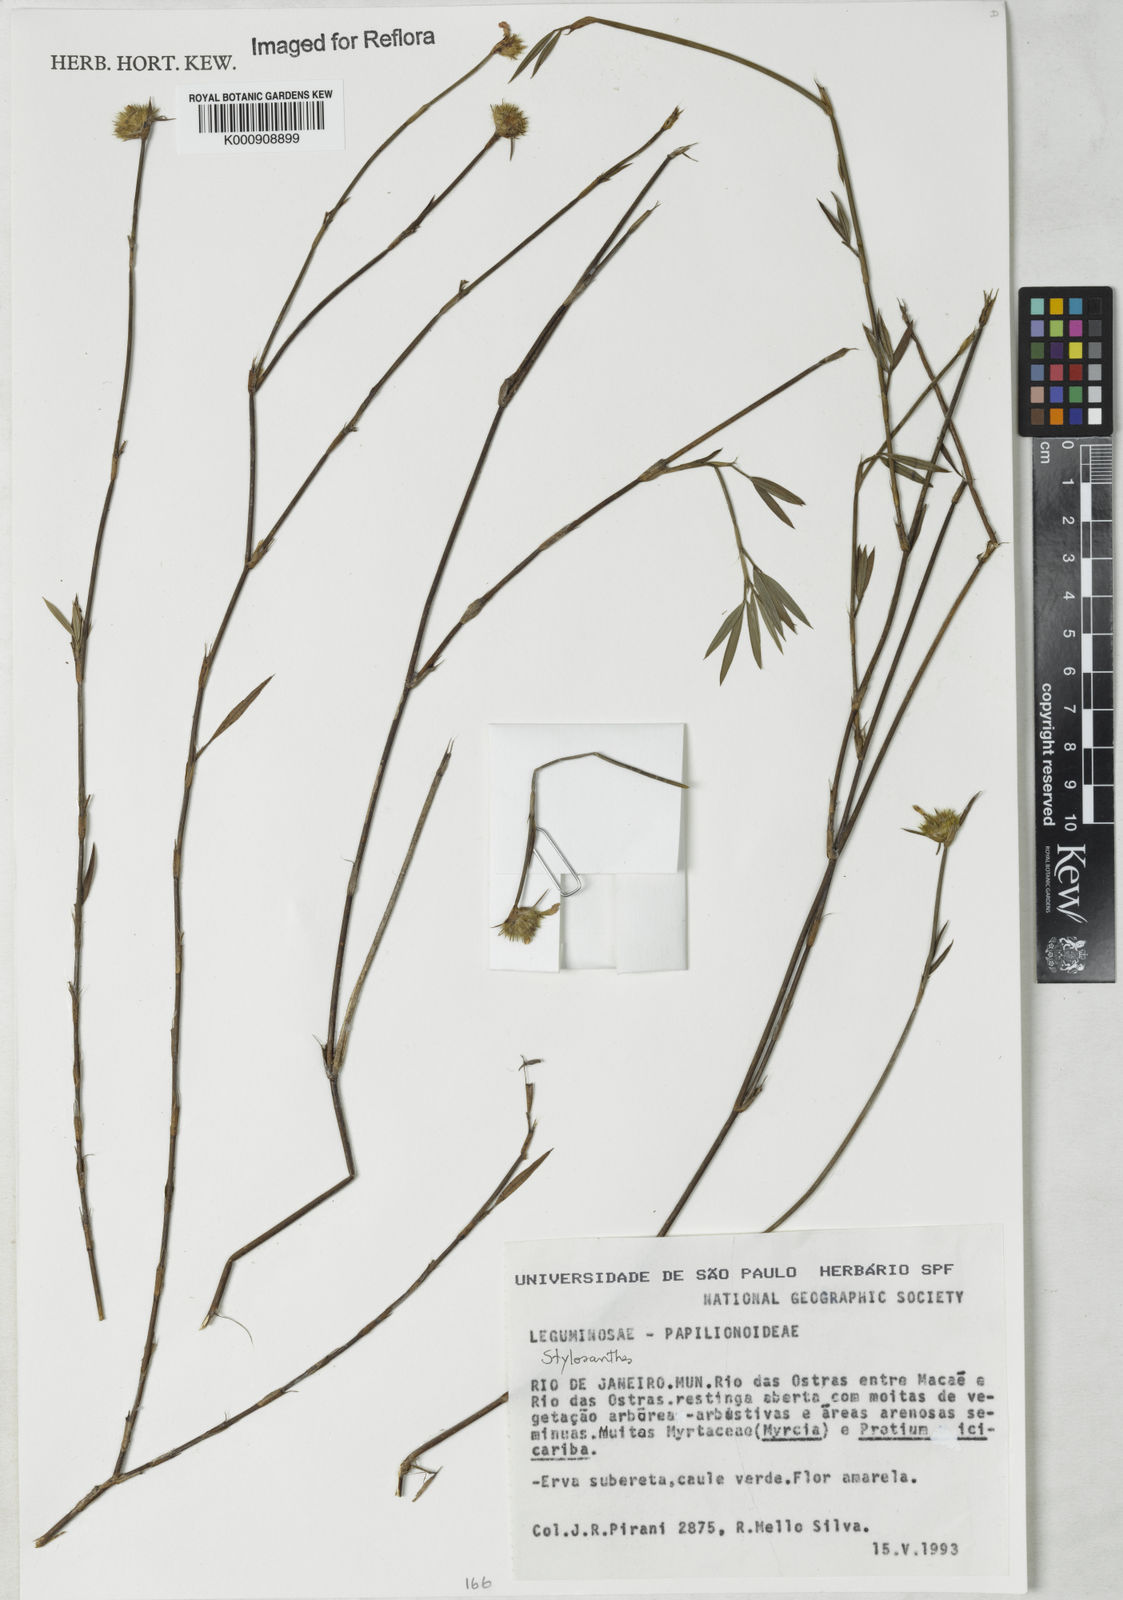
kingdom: Plantae
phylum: Tracheophyta
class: Magnoliopsida
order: Fabales
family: Fabaceae
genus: Stylosanthes
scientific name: Stylosanthes
